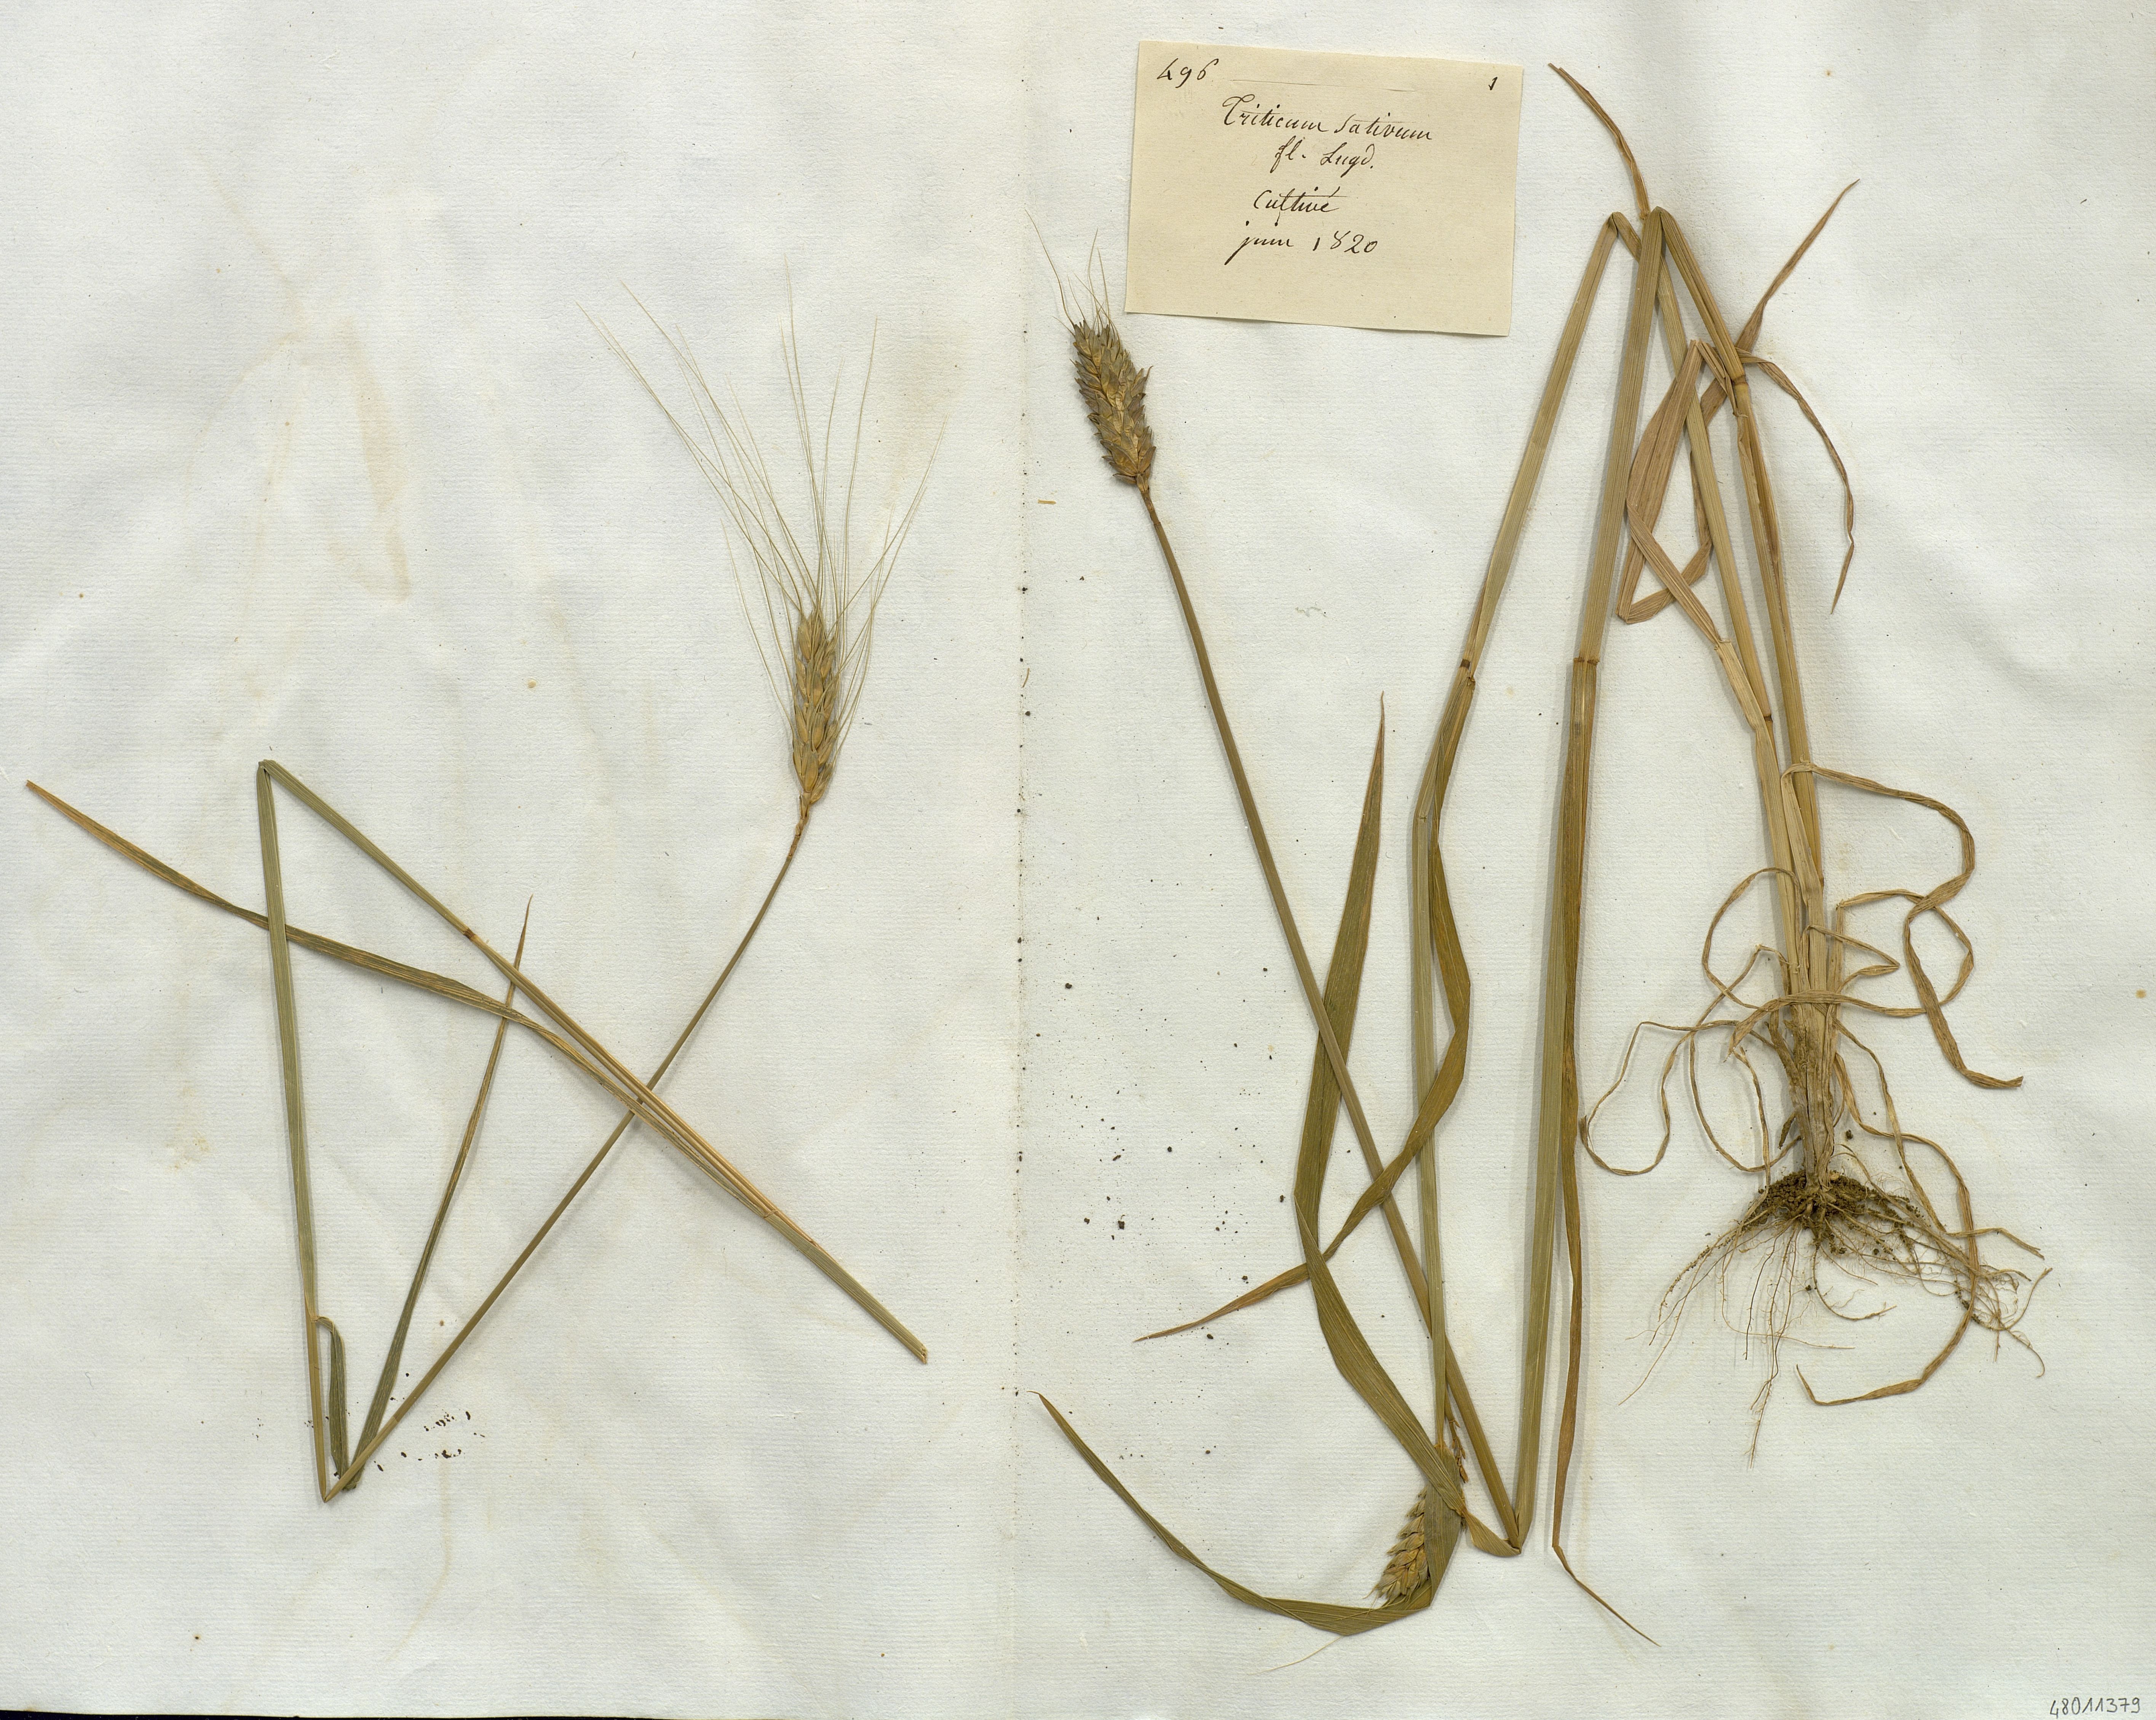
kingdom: Plantae
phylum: Tracheophyta
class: Liliopsida
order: Poales
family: Poaceae
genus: Triticum
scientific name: Triticum aestivum
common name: Common wheat
